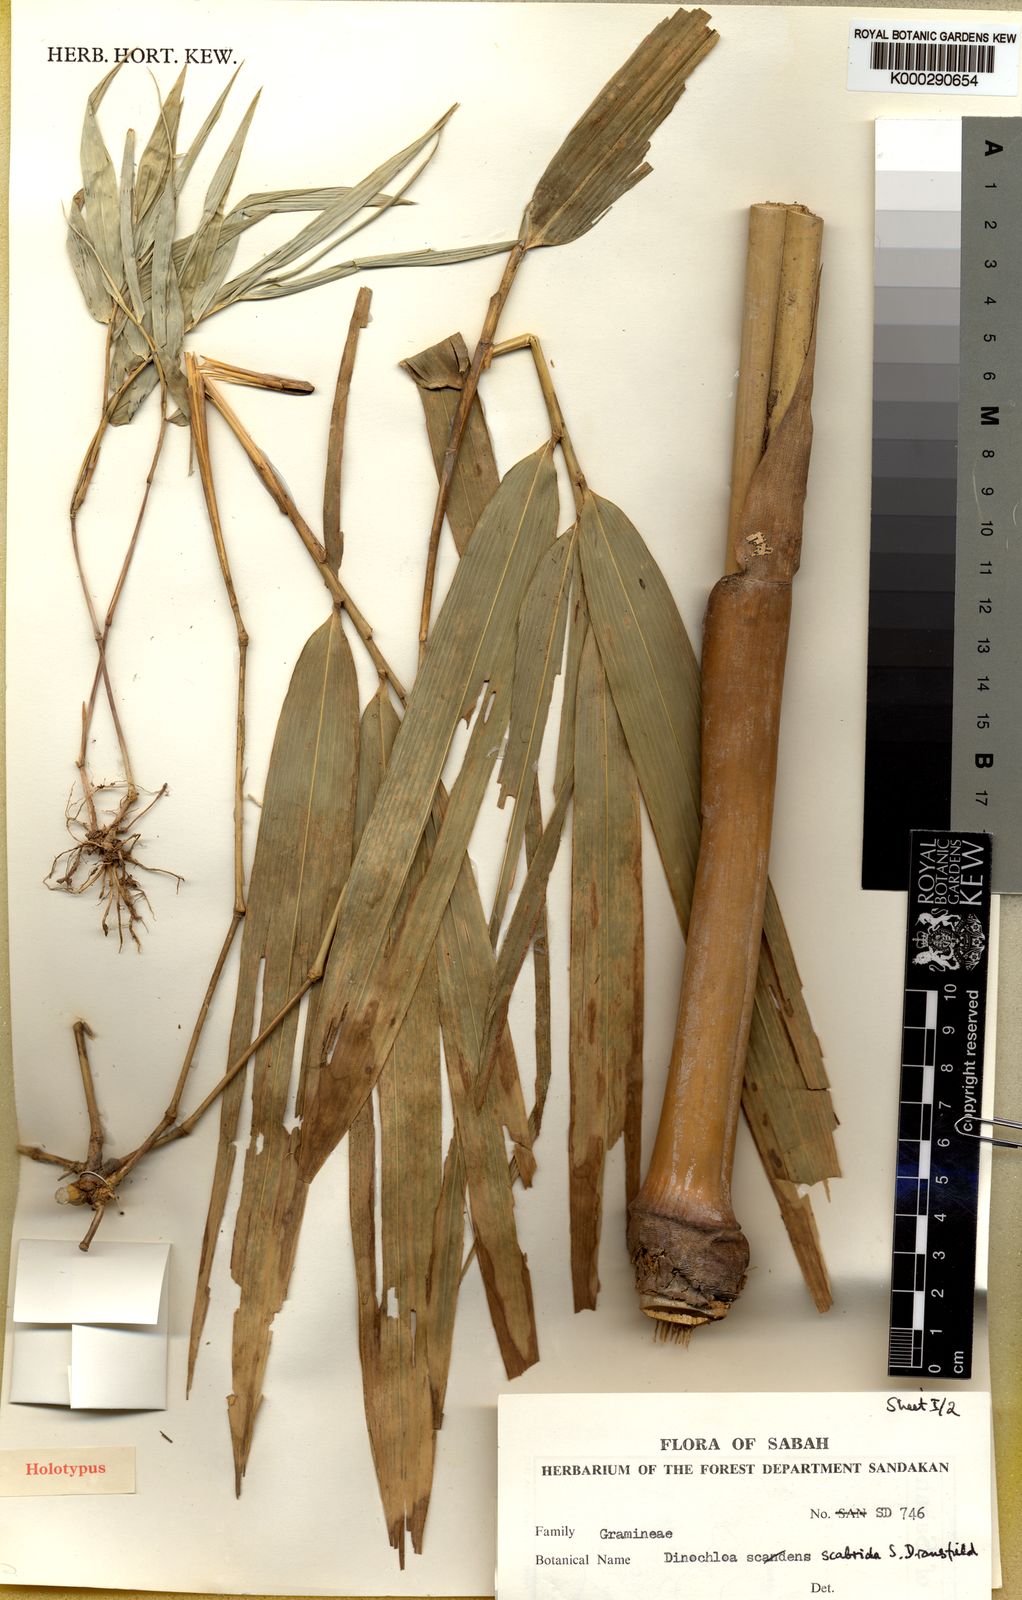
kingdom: Plantae
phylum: Tracheophyta
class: Liliopsida
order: Poales
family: Poaceae
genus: Dinochloa
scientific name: Dinochloa scabrida
